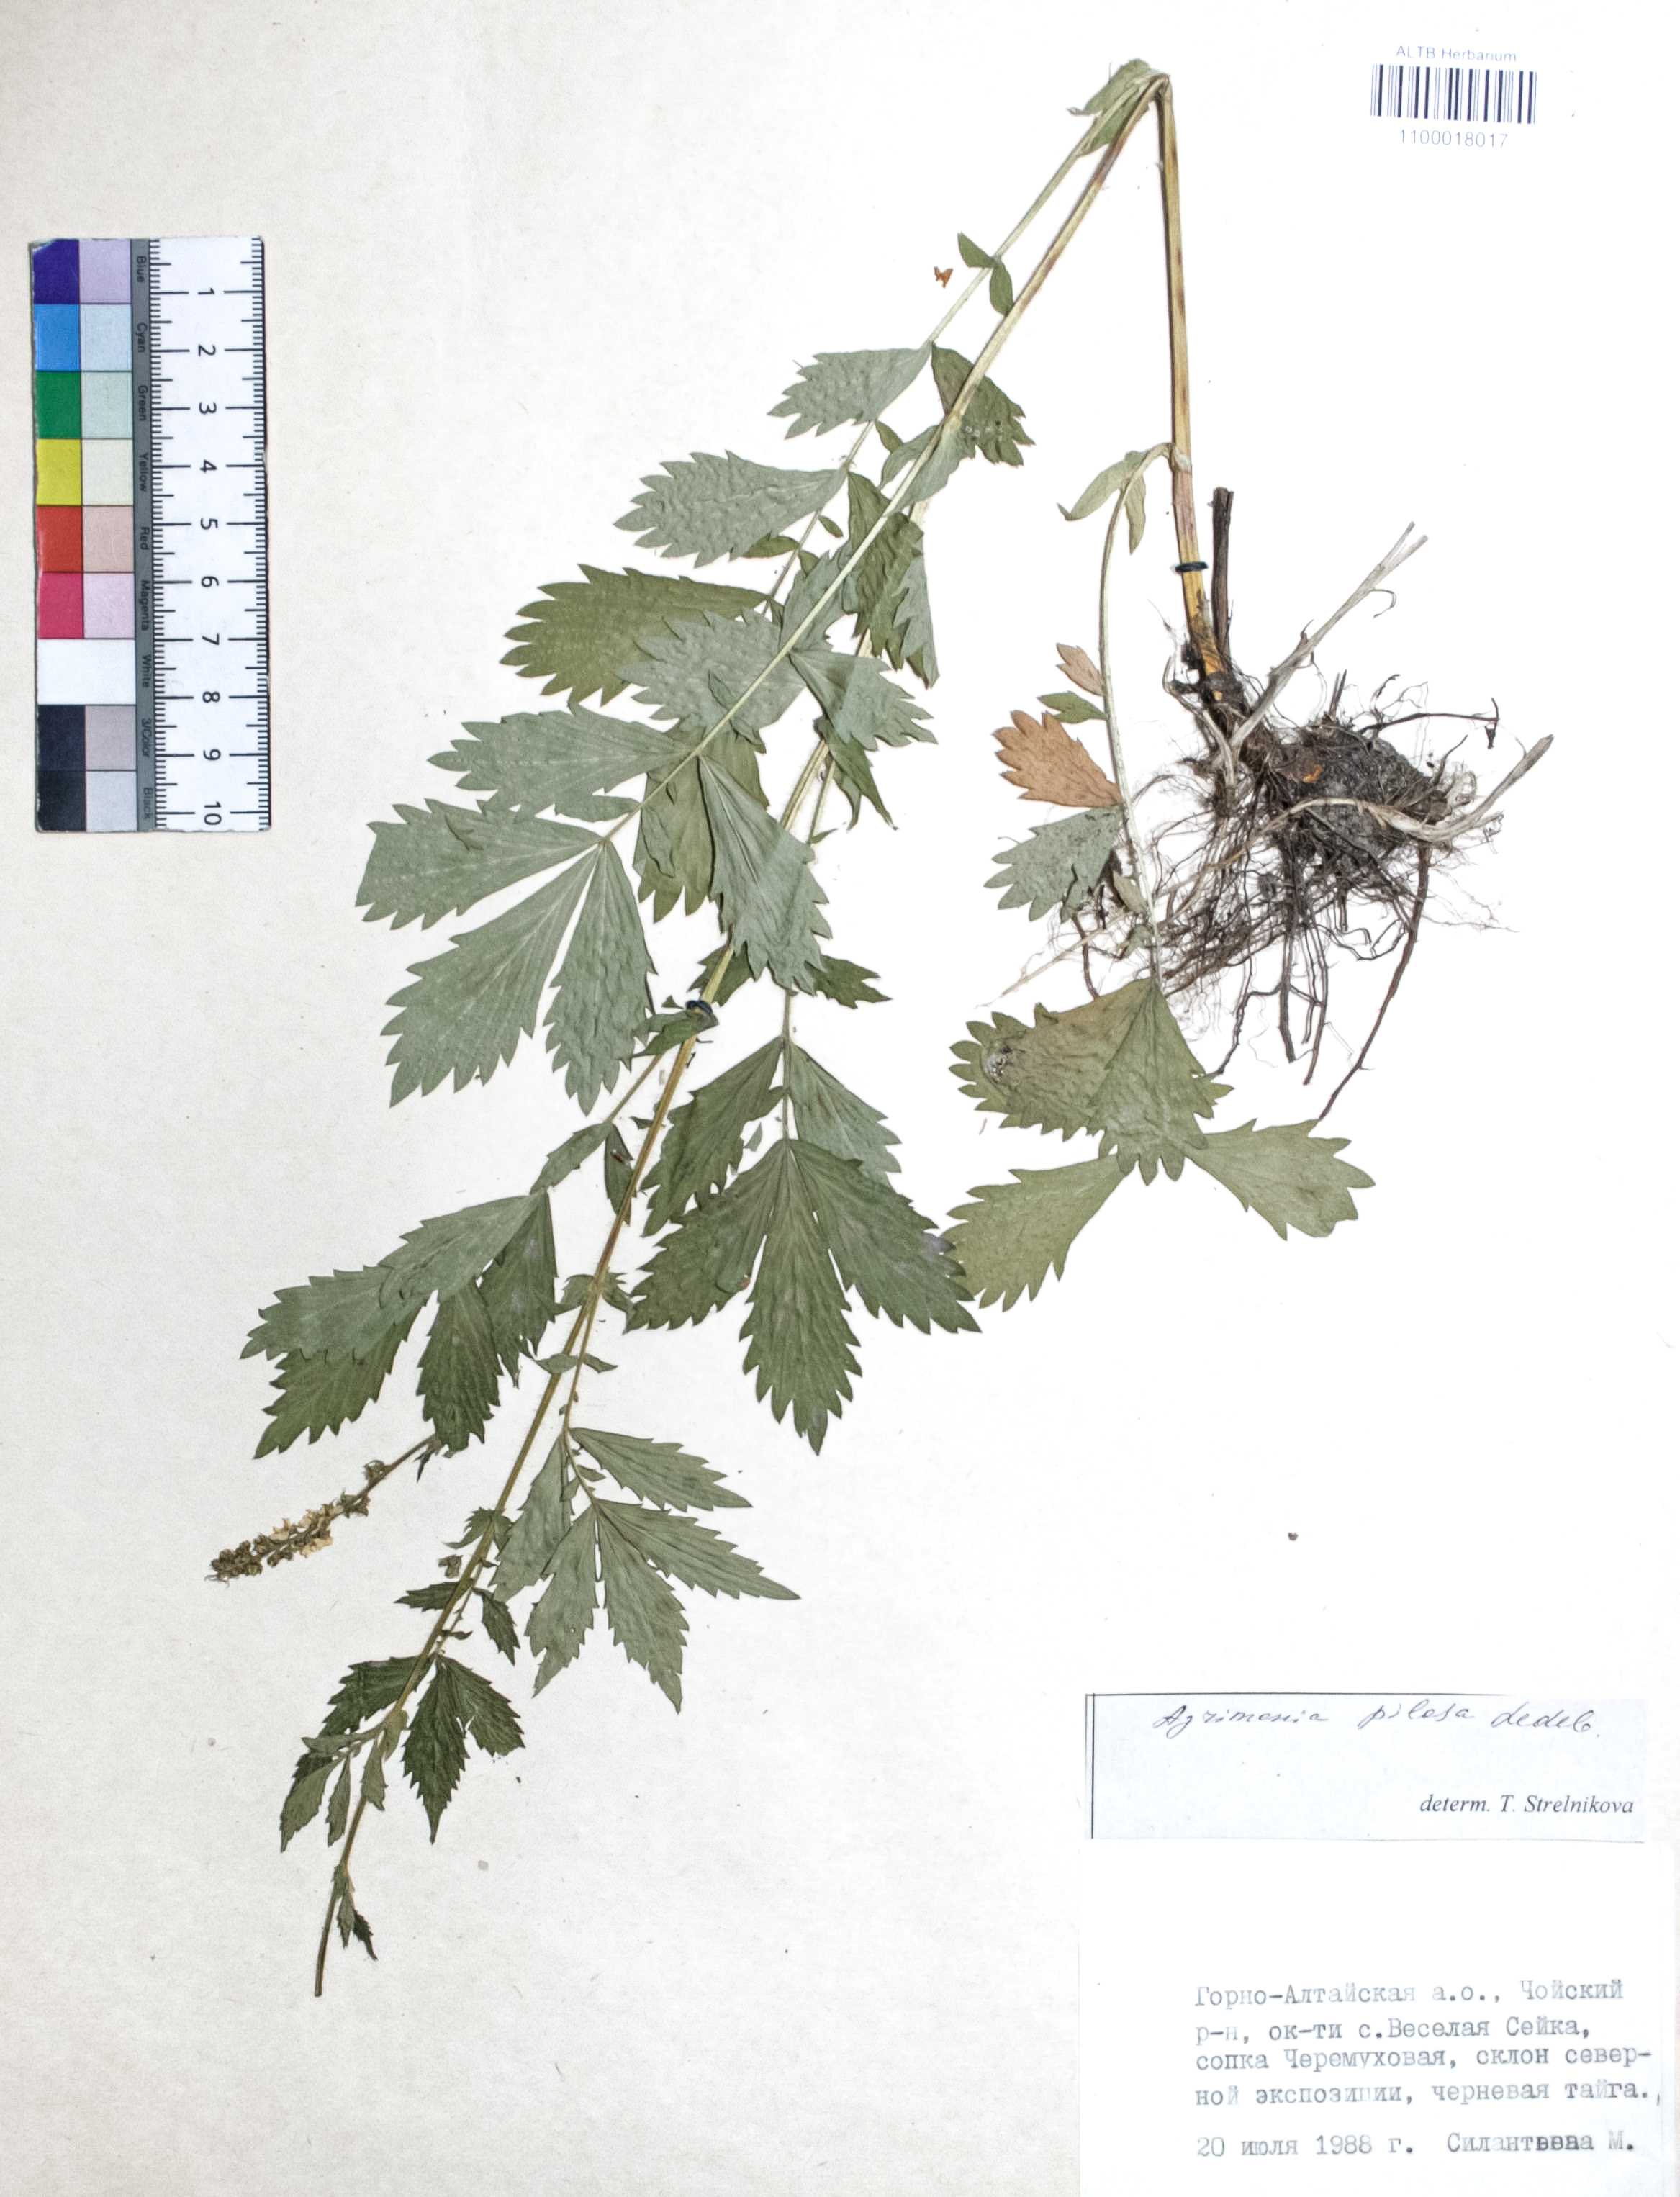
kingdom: Plantae
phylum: Tracheophyta
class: Magnoliopsida
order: Rosales
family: Rosaceae
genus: Agrimonia
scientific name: Agrimonia pilosa
